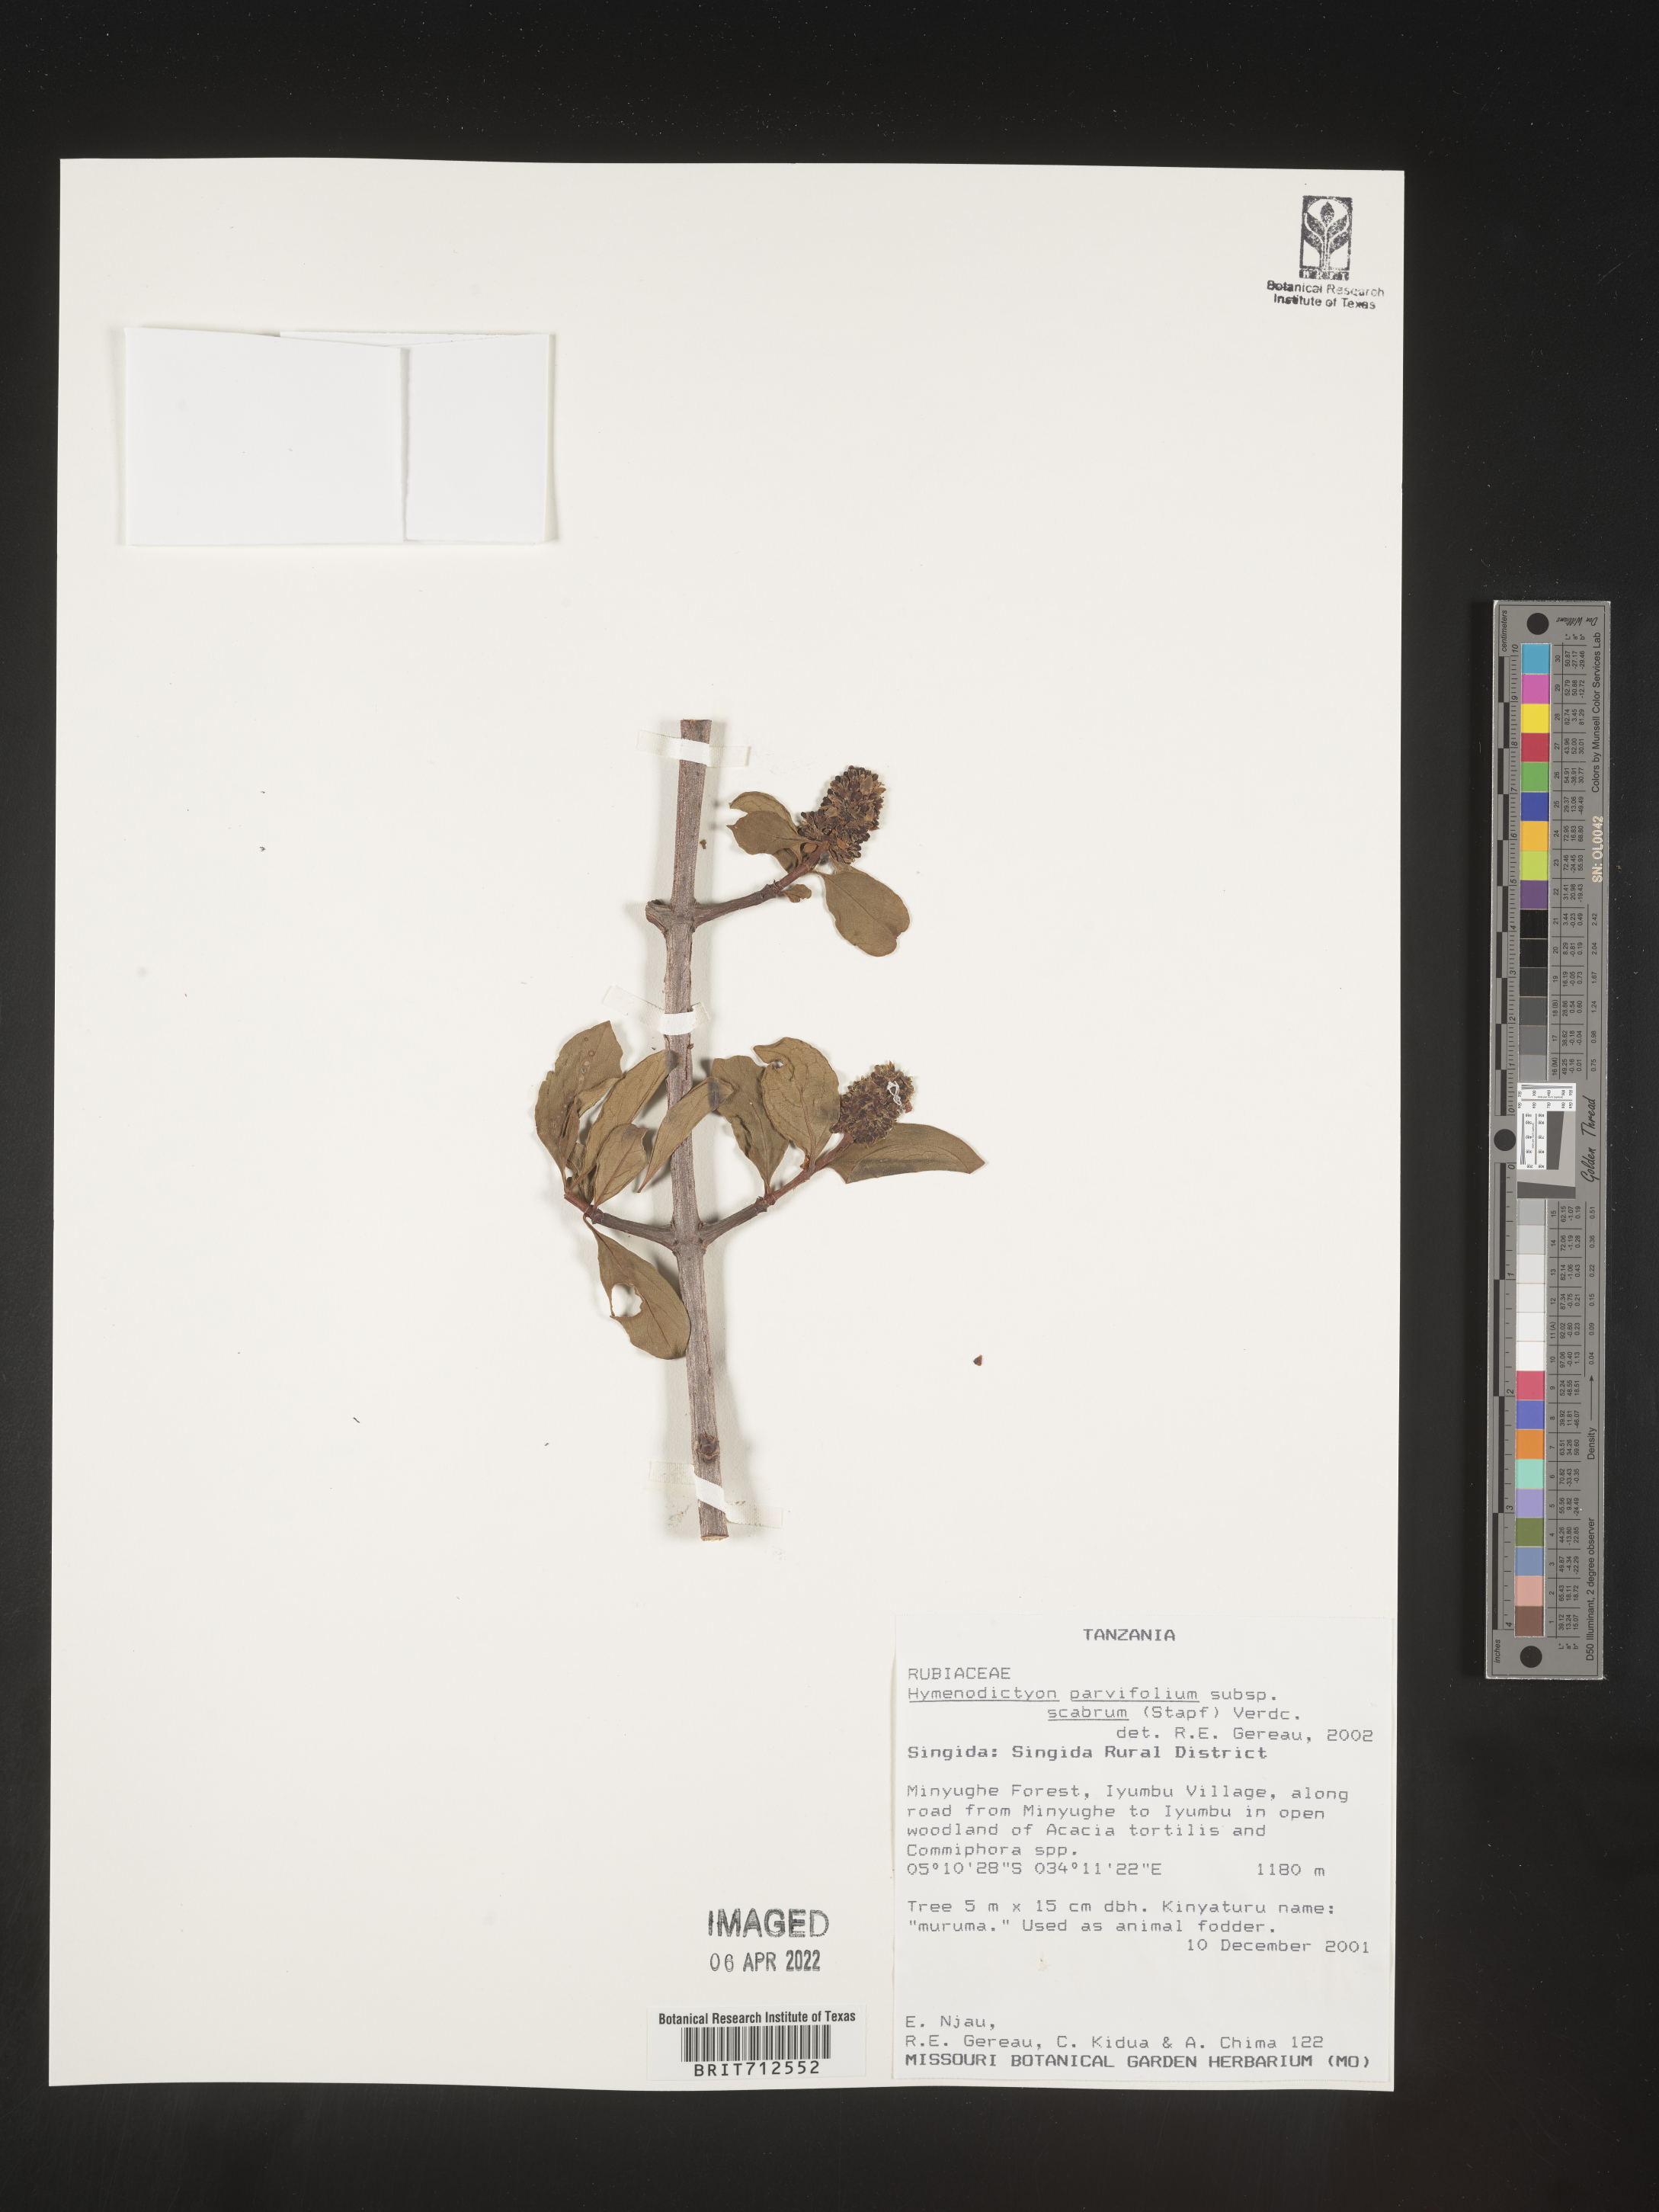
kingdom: Plantae
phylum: Tracheophyta
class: Magnoliopsida
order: Gentianales
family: Rubiaceae
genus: Hymenodictyon
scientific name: Hymenodictyon
